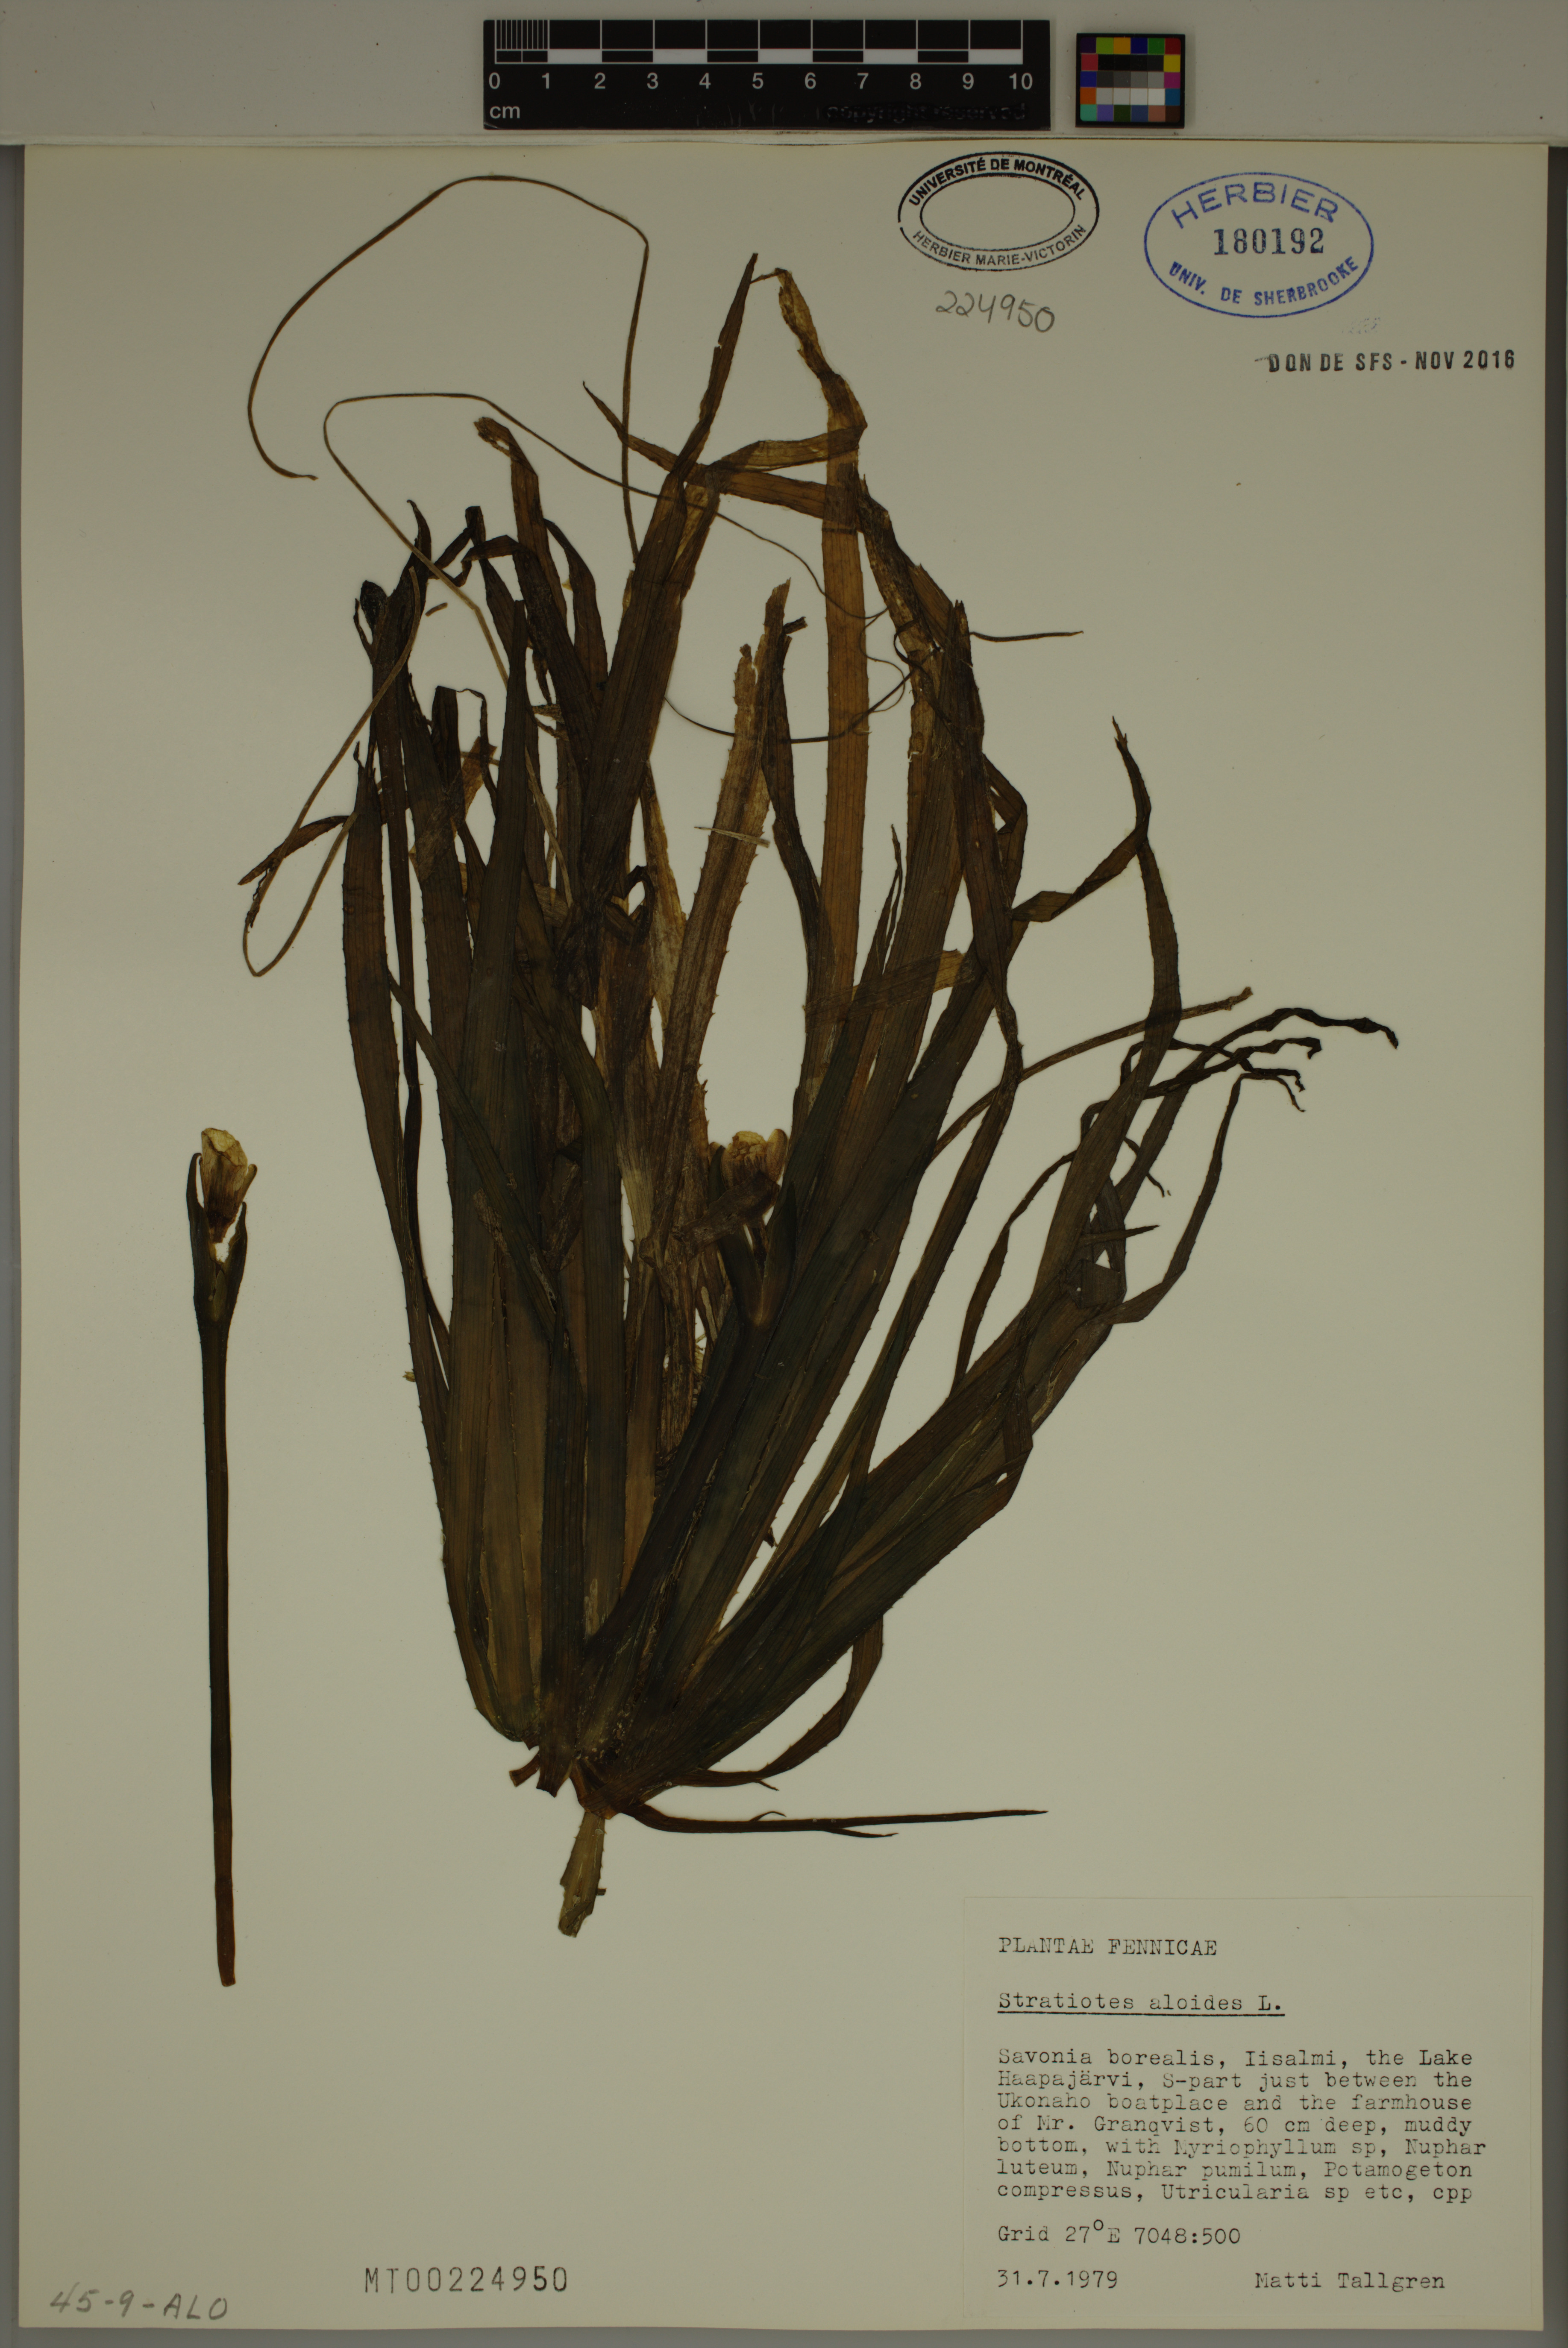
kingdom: Plantae
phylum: Tracheophyta
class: Liliopsida
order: Alismatales
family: Hydrocharitaceae
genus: Stratiotes
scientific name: Stratiotes aloides
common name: Water-soldier
